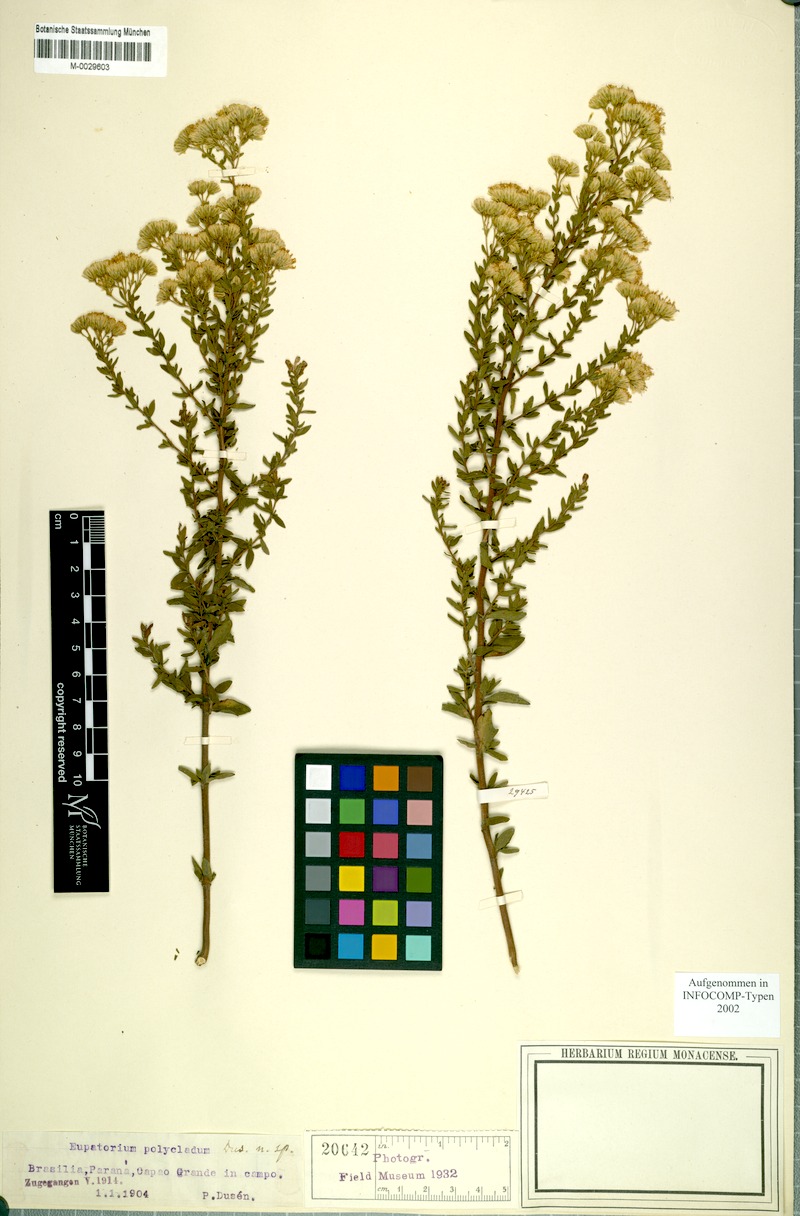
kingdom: Plantae
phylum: Tracheophyta
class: Magnoliopsida
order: Asterales
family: Asteraceae
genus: Hatschbachiella
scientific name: Hatschbachiella polyclada
